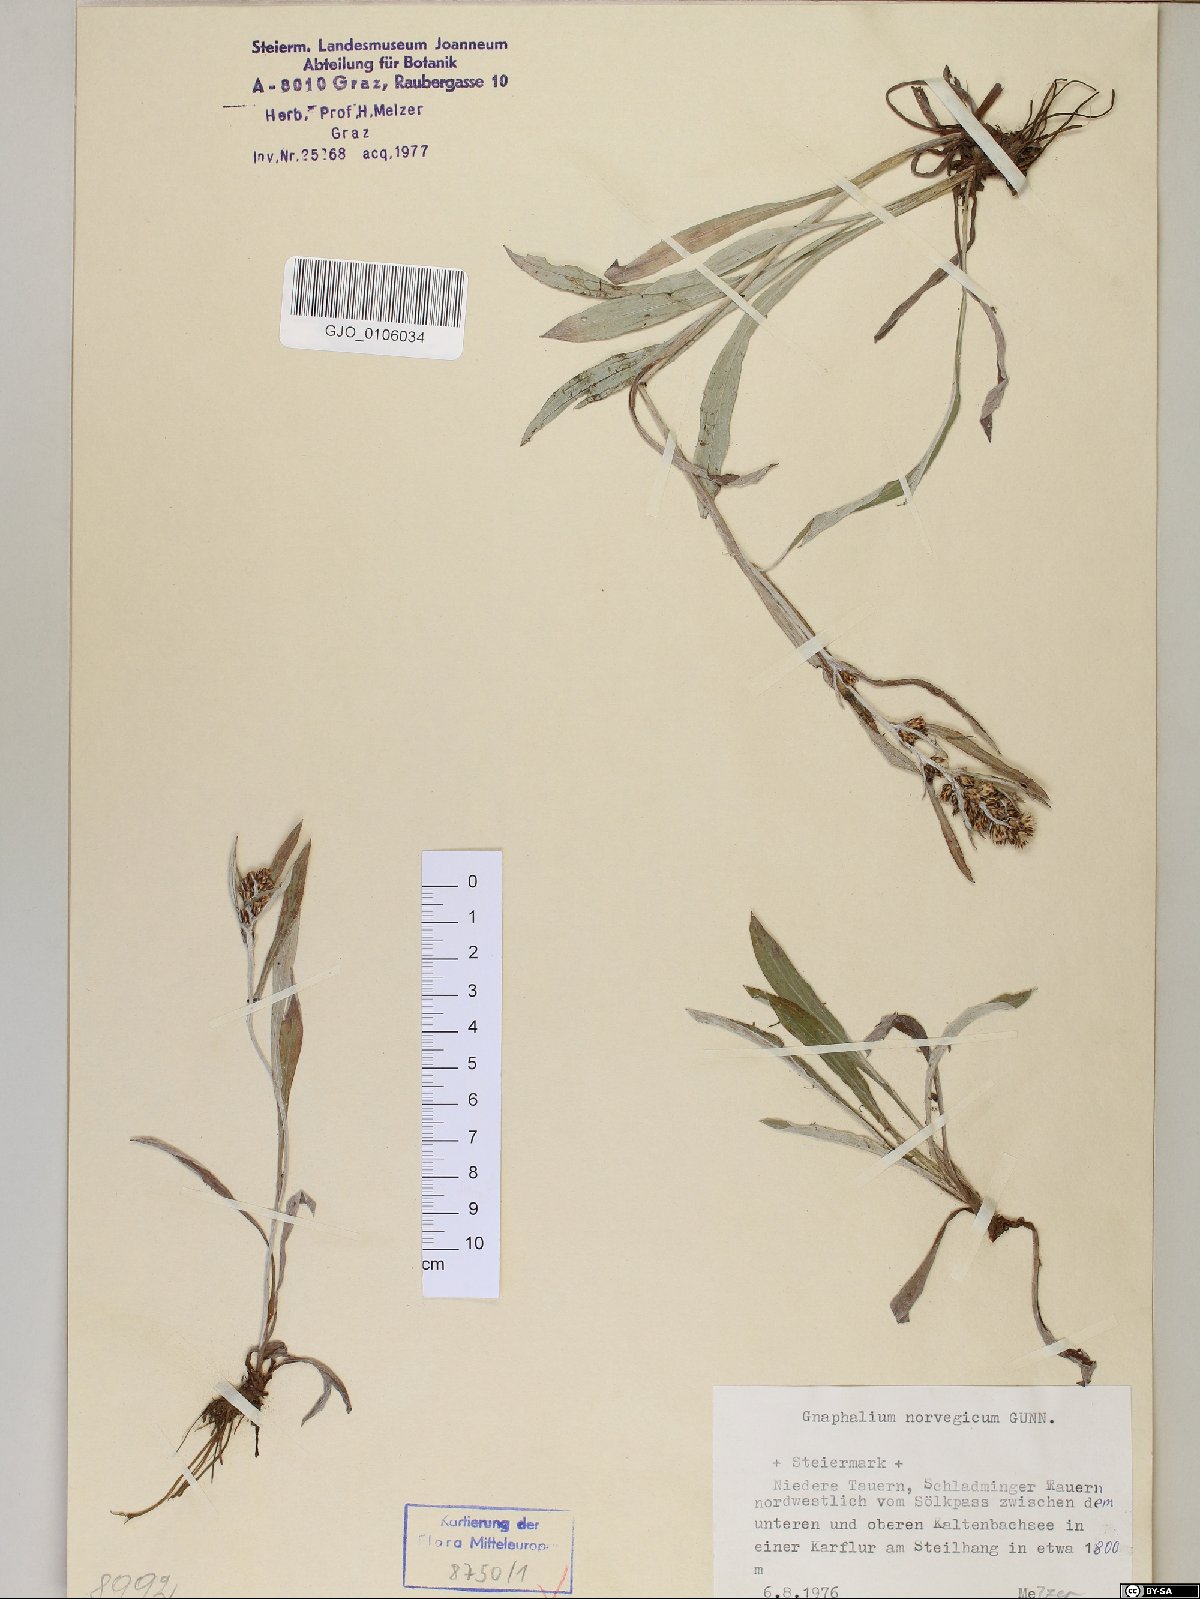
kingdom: Plantae
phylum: Tracheophyta
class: Magnoliopsida
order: Asterales
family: Asteraceae
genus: Omalotheca
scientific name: Omalotheca norvegica
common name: Norwegian arctic-cudweed
